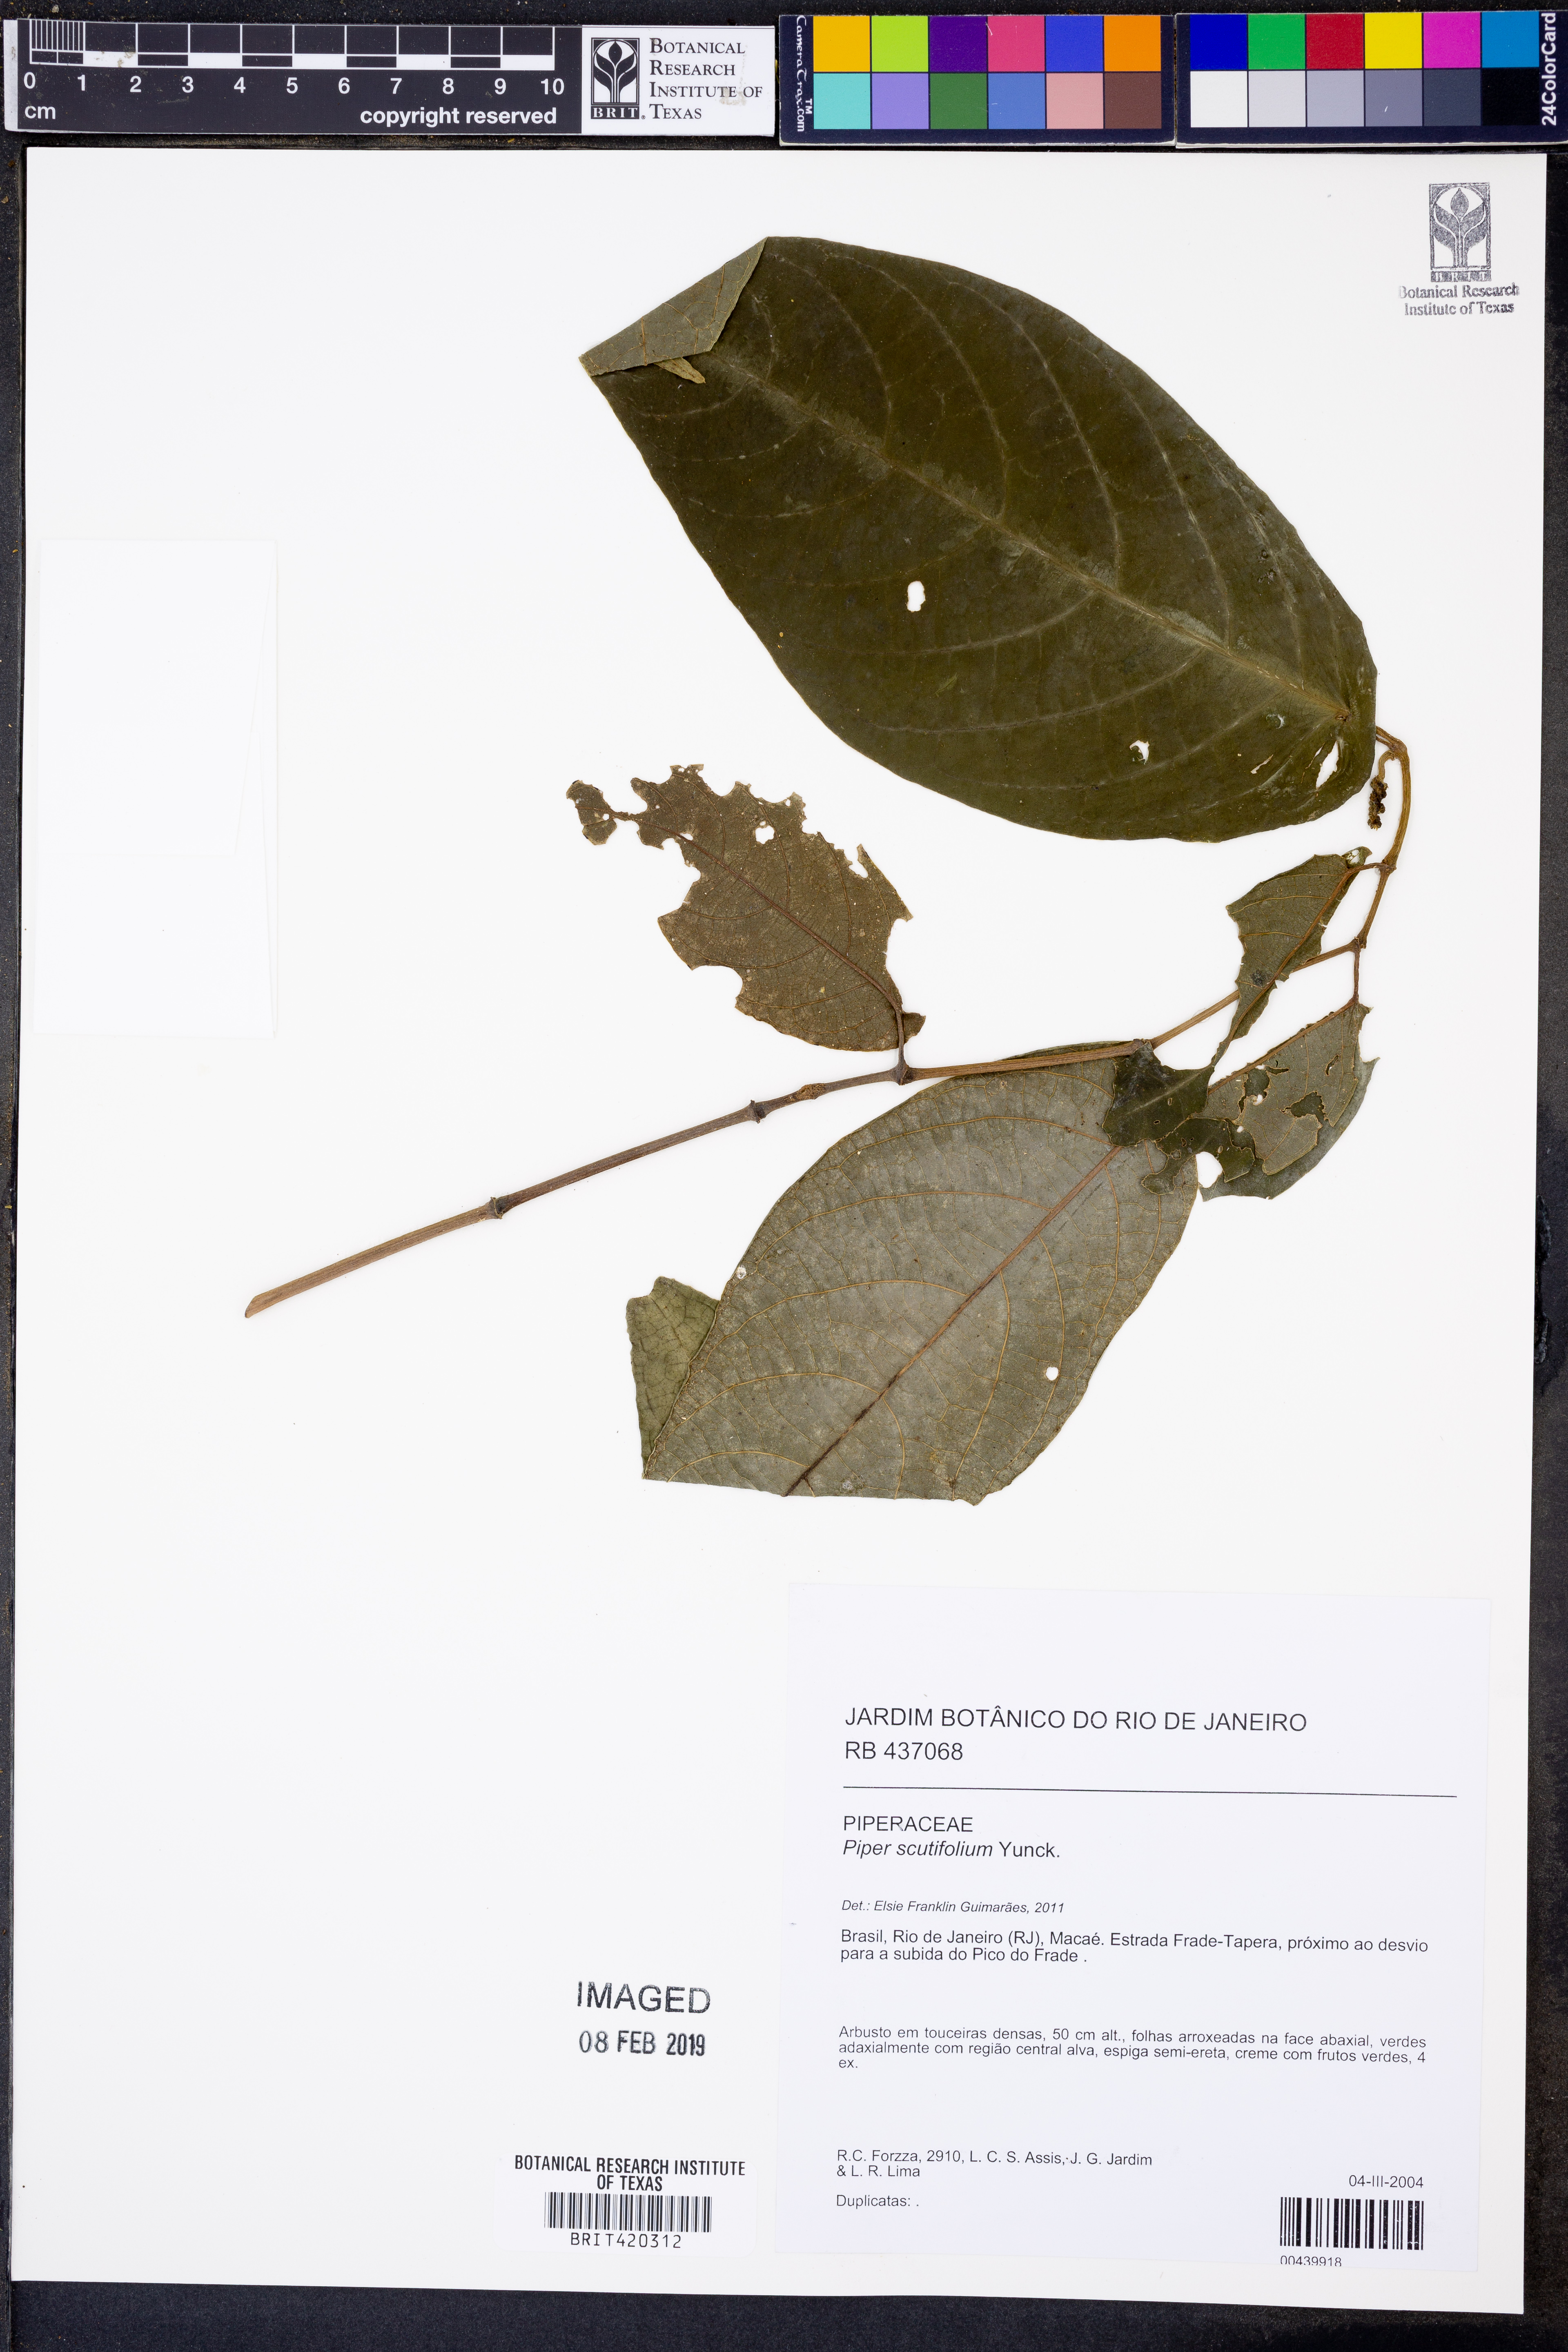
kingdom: Plantae
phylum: Tracheophyta
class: Magnoliopsida
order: Piperales
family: Piperaceae
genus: Piper
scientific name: Piper scutifolium
